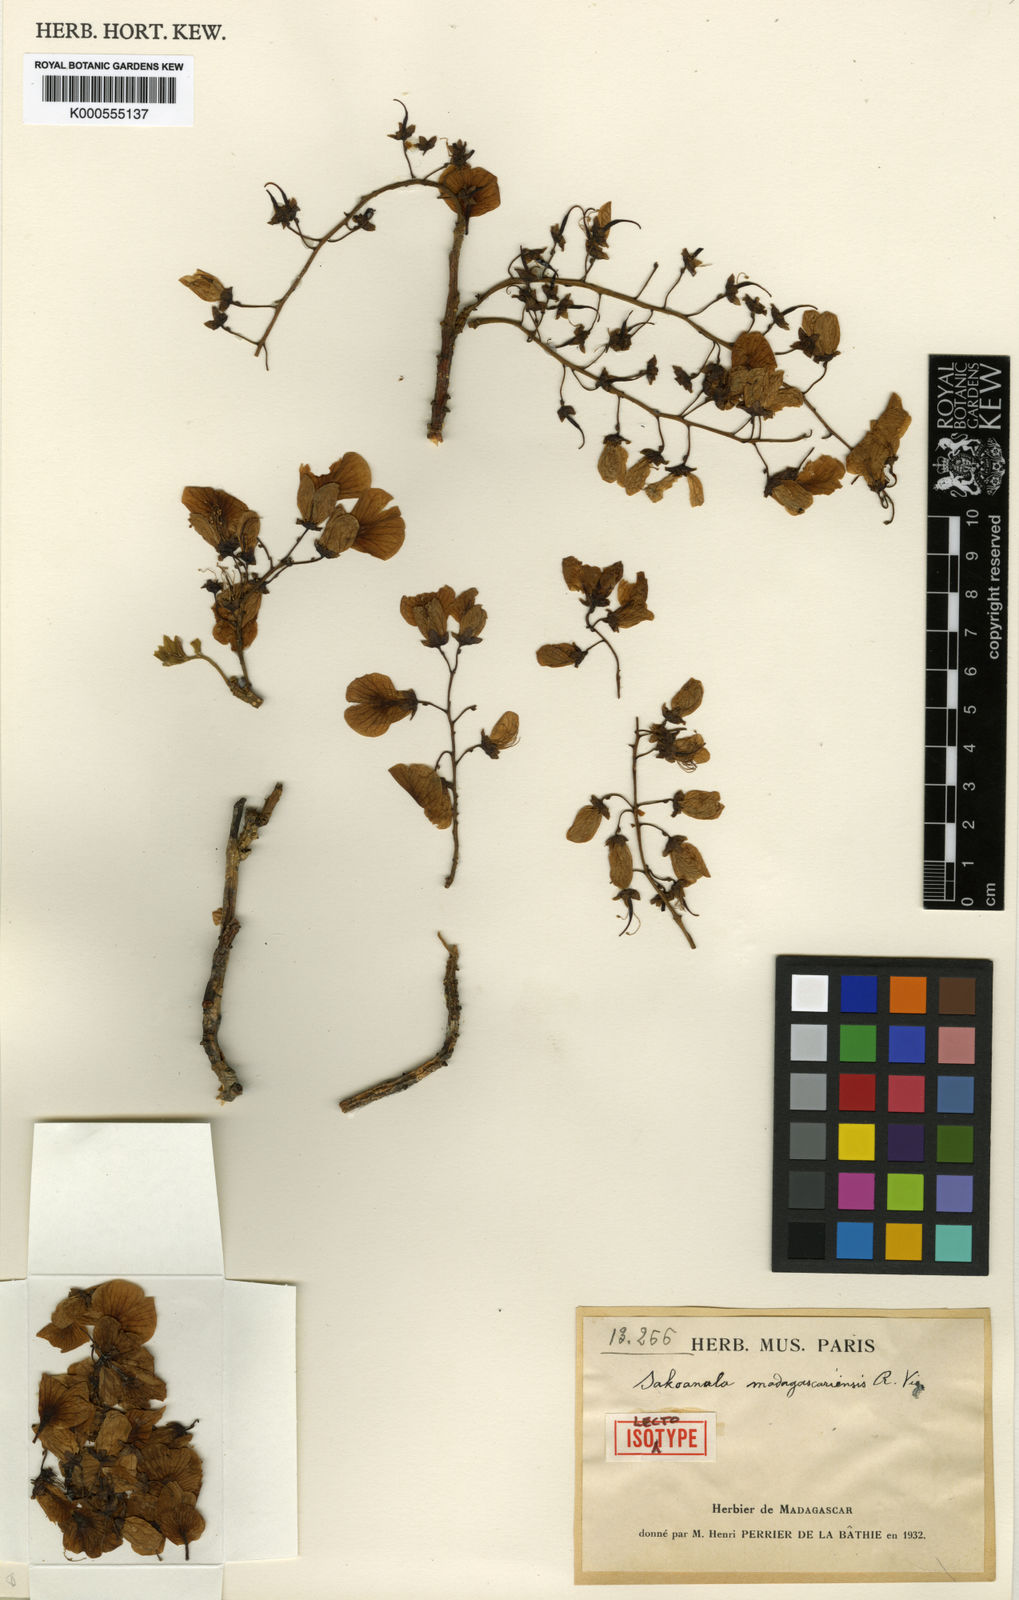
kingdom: Plantae
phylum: Tracheophyta
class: Magnoliopsida
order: Fabales
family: Fabaceae
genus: Sakoanala
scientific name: Sakoanala madagascariensis
